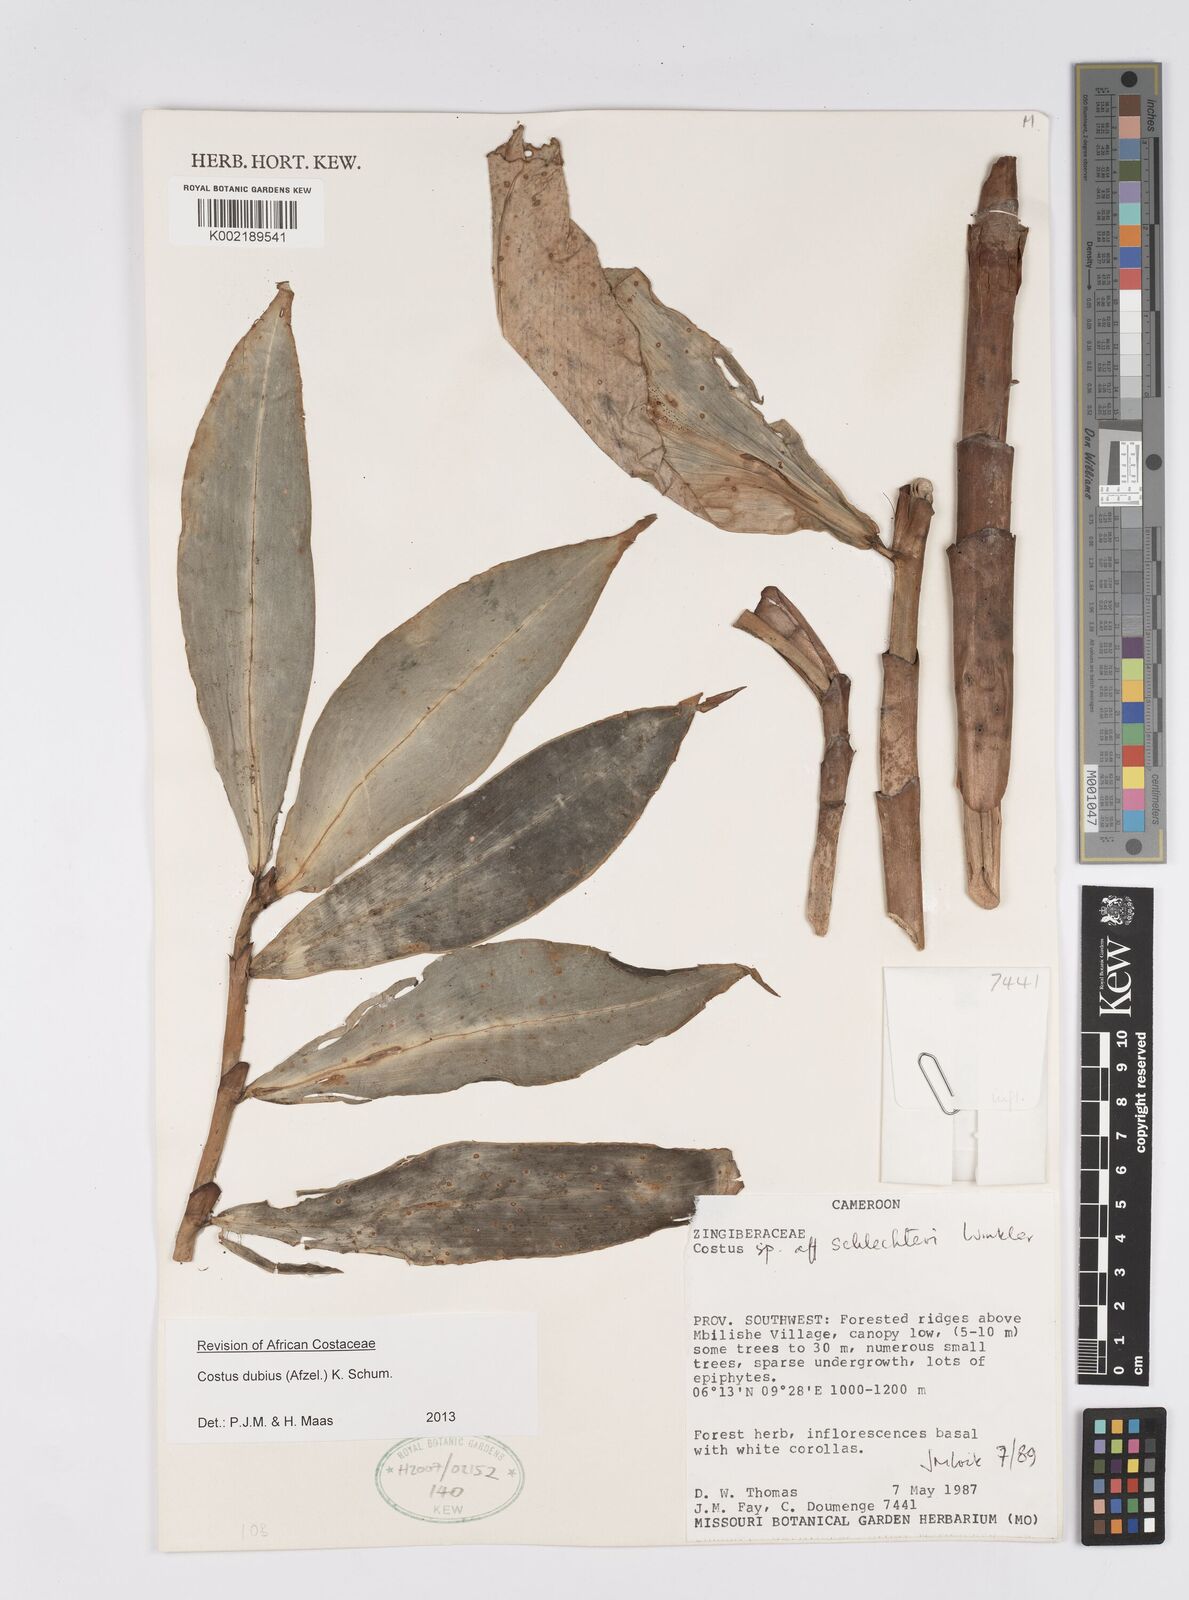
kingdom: Plantae
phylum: Tracheophyta
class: Liliopsida
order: Zingiberales
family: Costaceae
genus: Costus
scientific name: Costus dubius
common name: Costus
